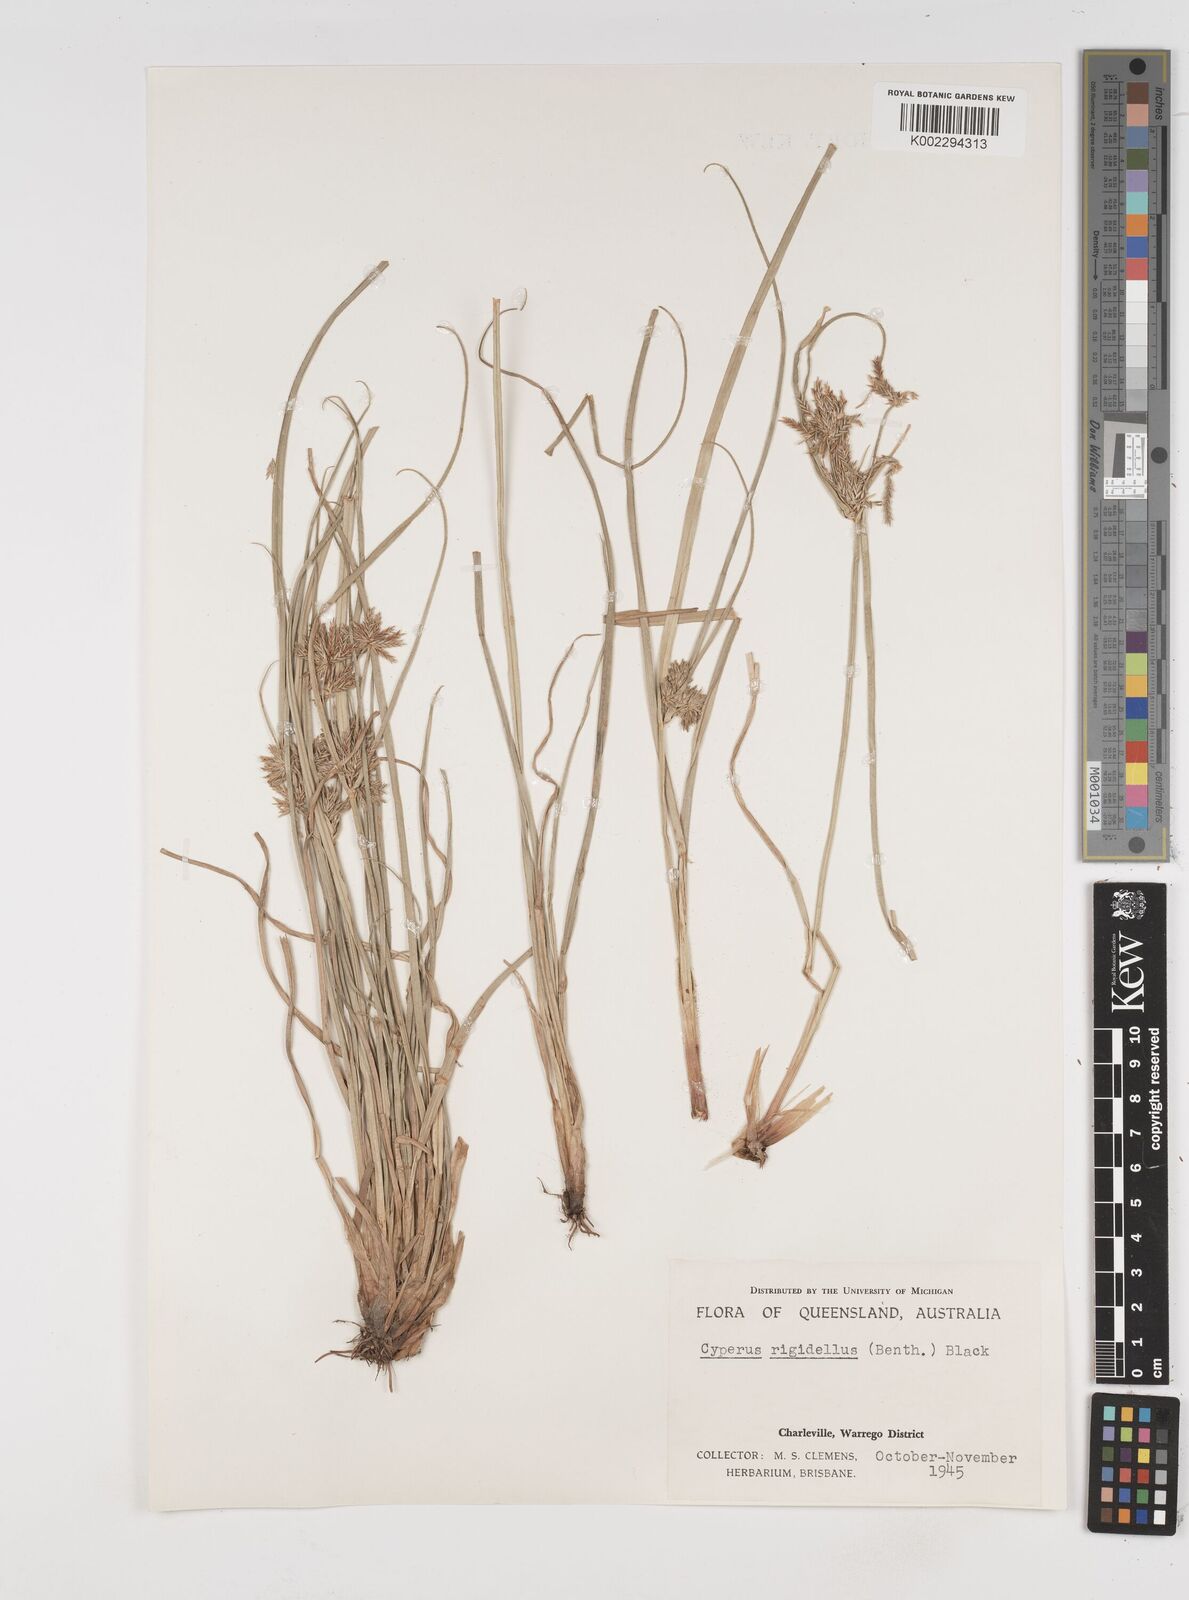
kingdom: Plantae
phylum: Tracheophyta
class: Liliopsida
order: Poales
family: Cyperaceae
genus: Cyperus
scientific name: Cyperus rigidellus
